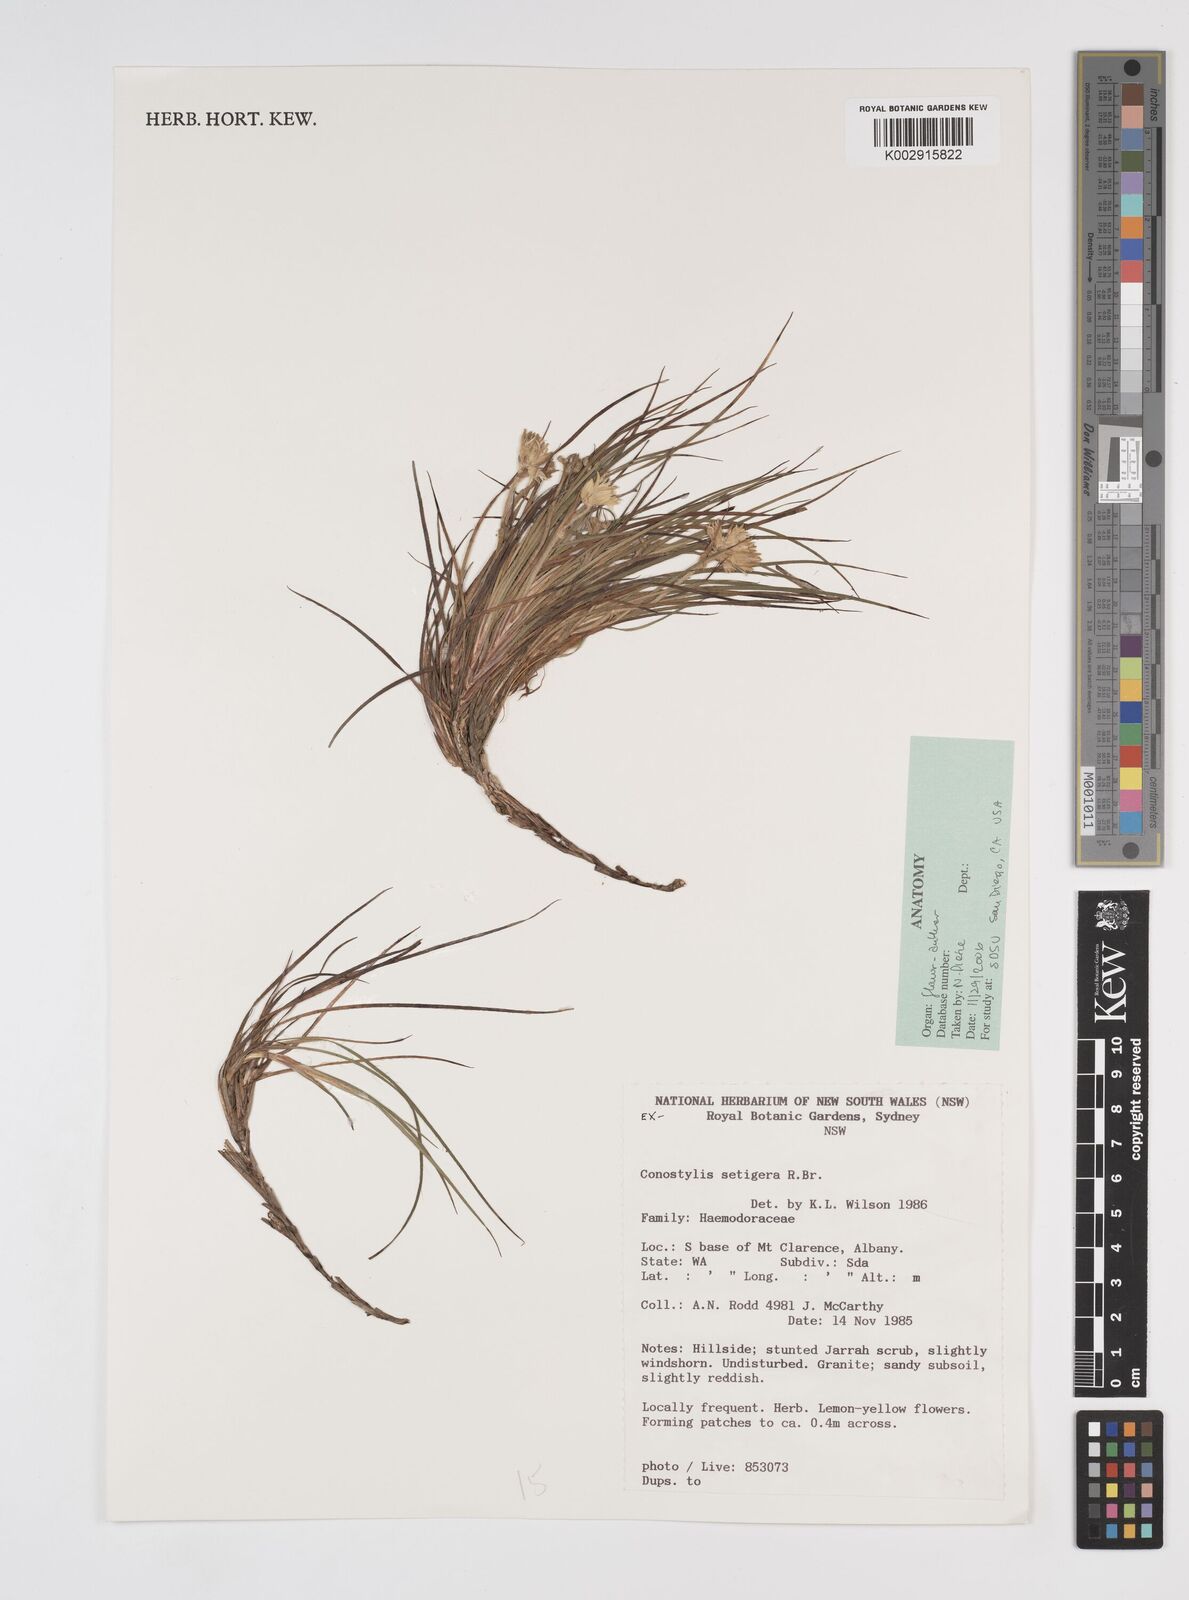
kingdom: Plantae
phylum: Tracheophyta
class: Liliopsida
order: Commelinales
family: Haemodoraceae
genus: Conostylis
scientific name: Conostylis setigera
